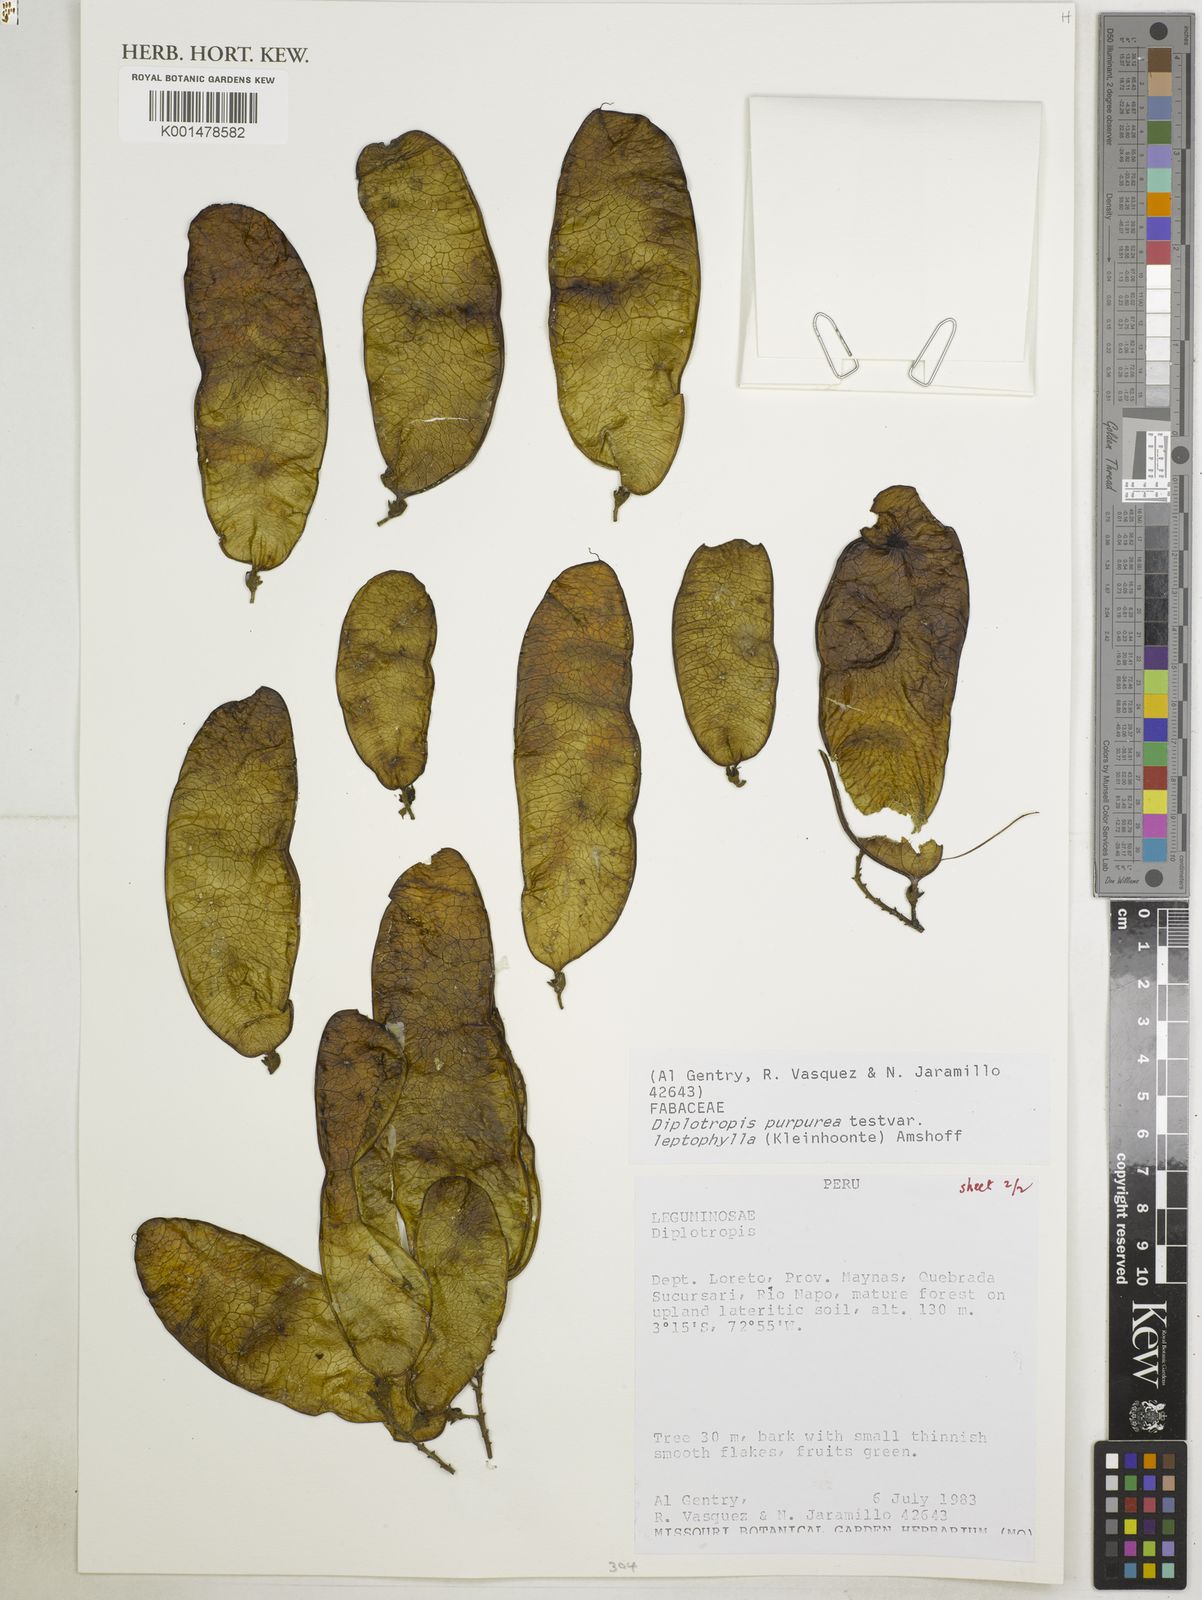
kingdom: Plantae
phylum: Tracheophyta
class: Magnoliopsida
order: Fabales
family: Fabaceae
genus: Diplotropis
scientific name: Diplotropis purpurea
